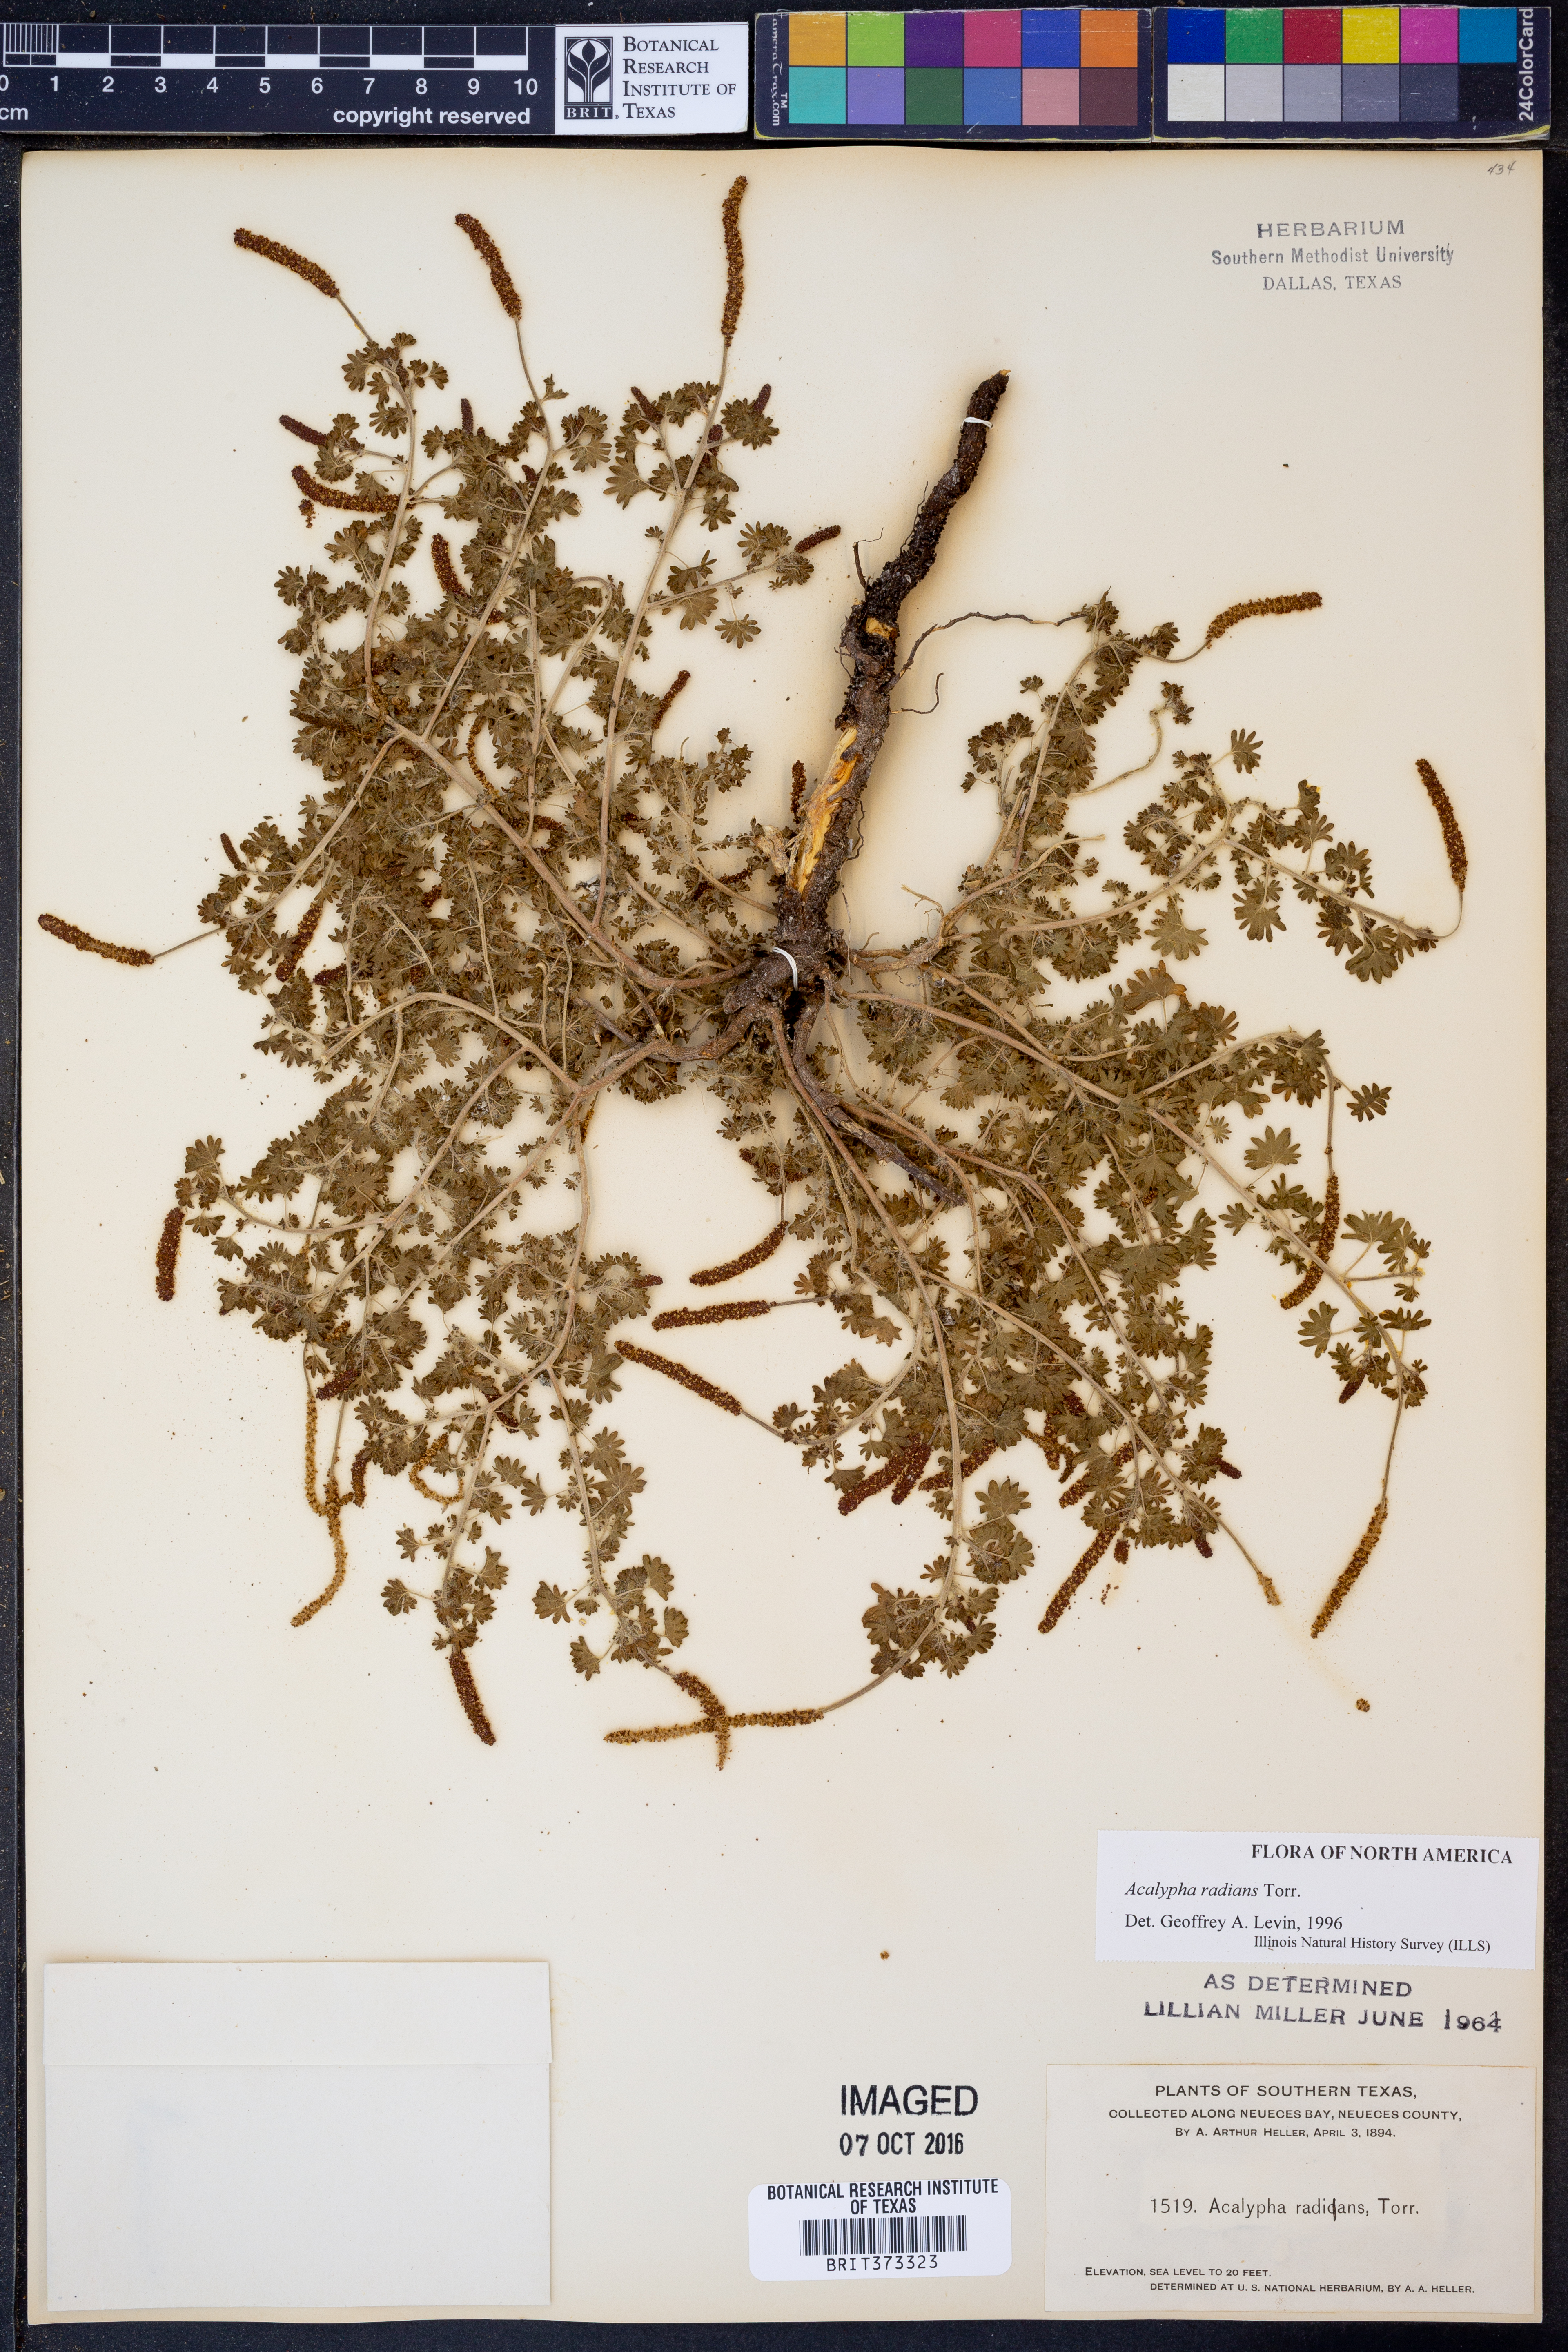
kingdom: Plantae
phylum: Tracheophyta
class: Magnoliopsida
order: Malpighiales
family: Euphorbiaceae
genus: Acalypha
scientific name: Acalypha radians
